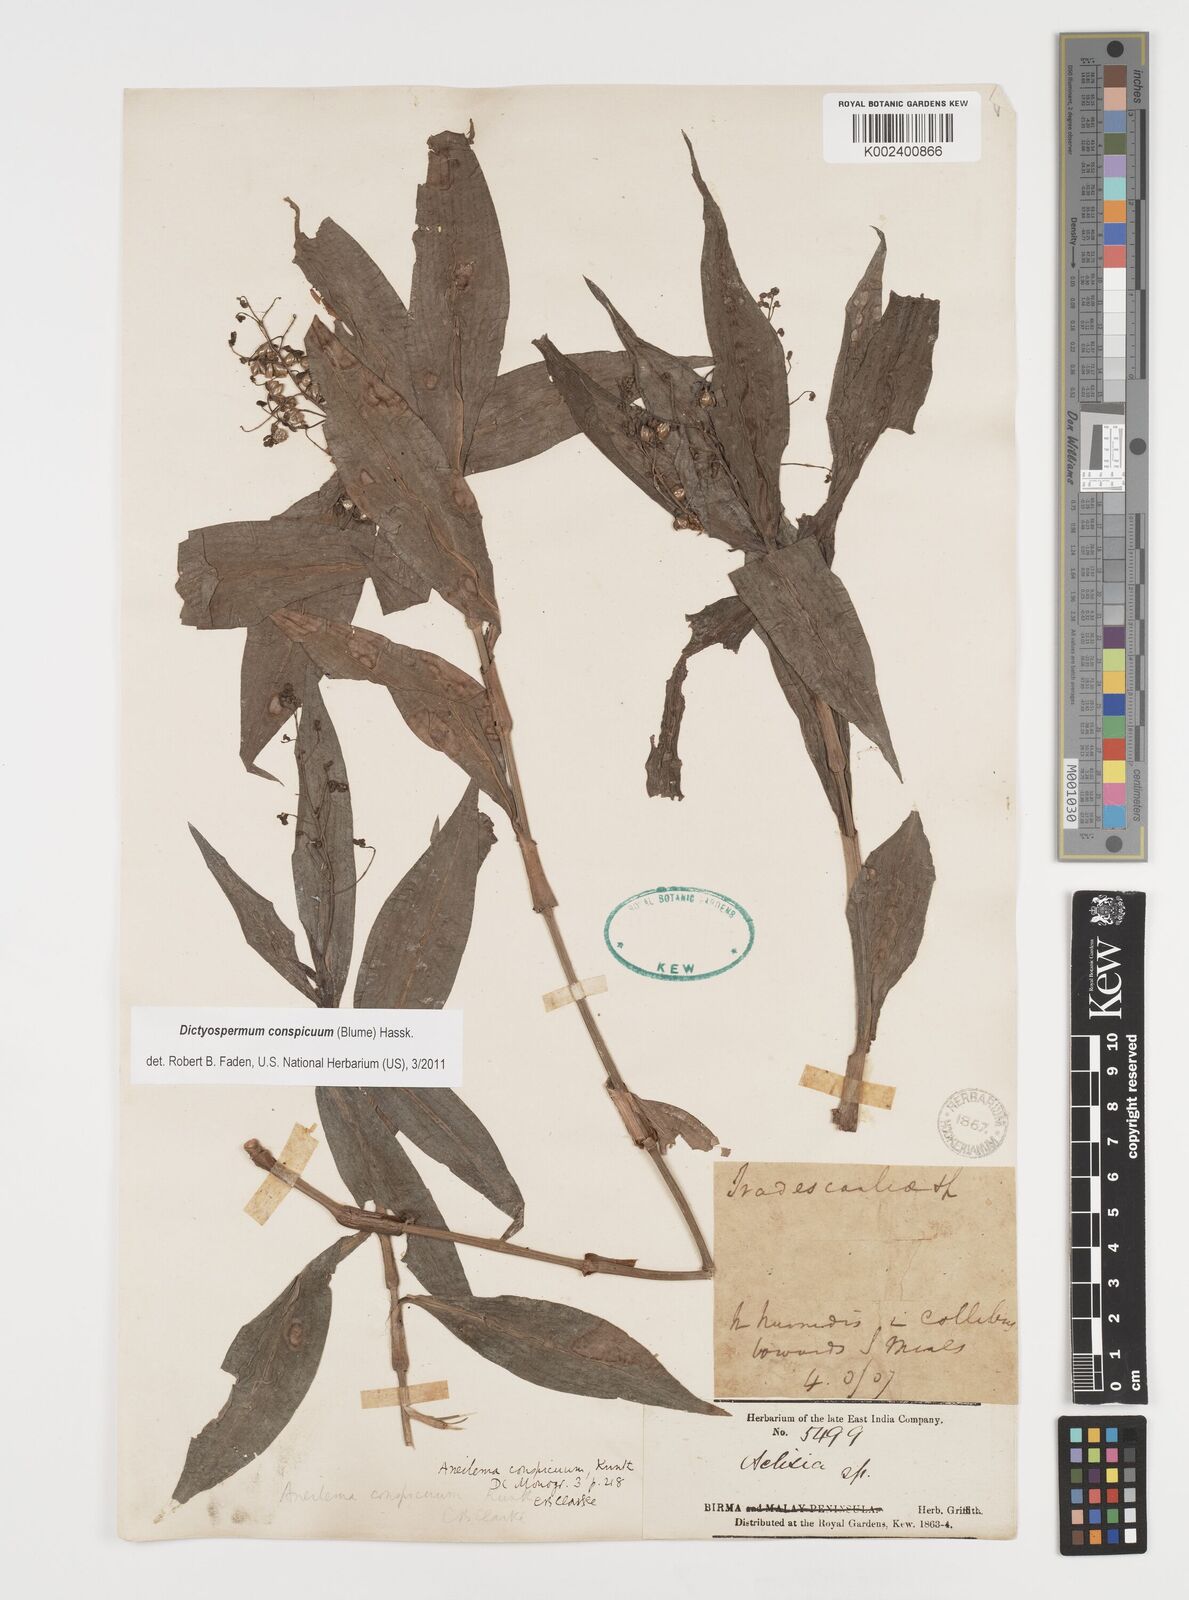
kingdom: Plantae
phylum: Tracheophyta
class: Liliopsida
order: Commelinales
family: Commelinaceae
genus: Dictyospermum
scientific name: Dictyospermum conspicuum
